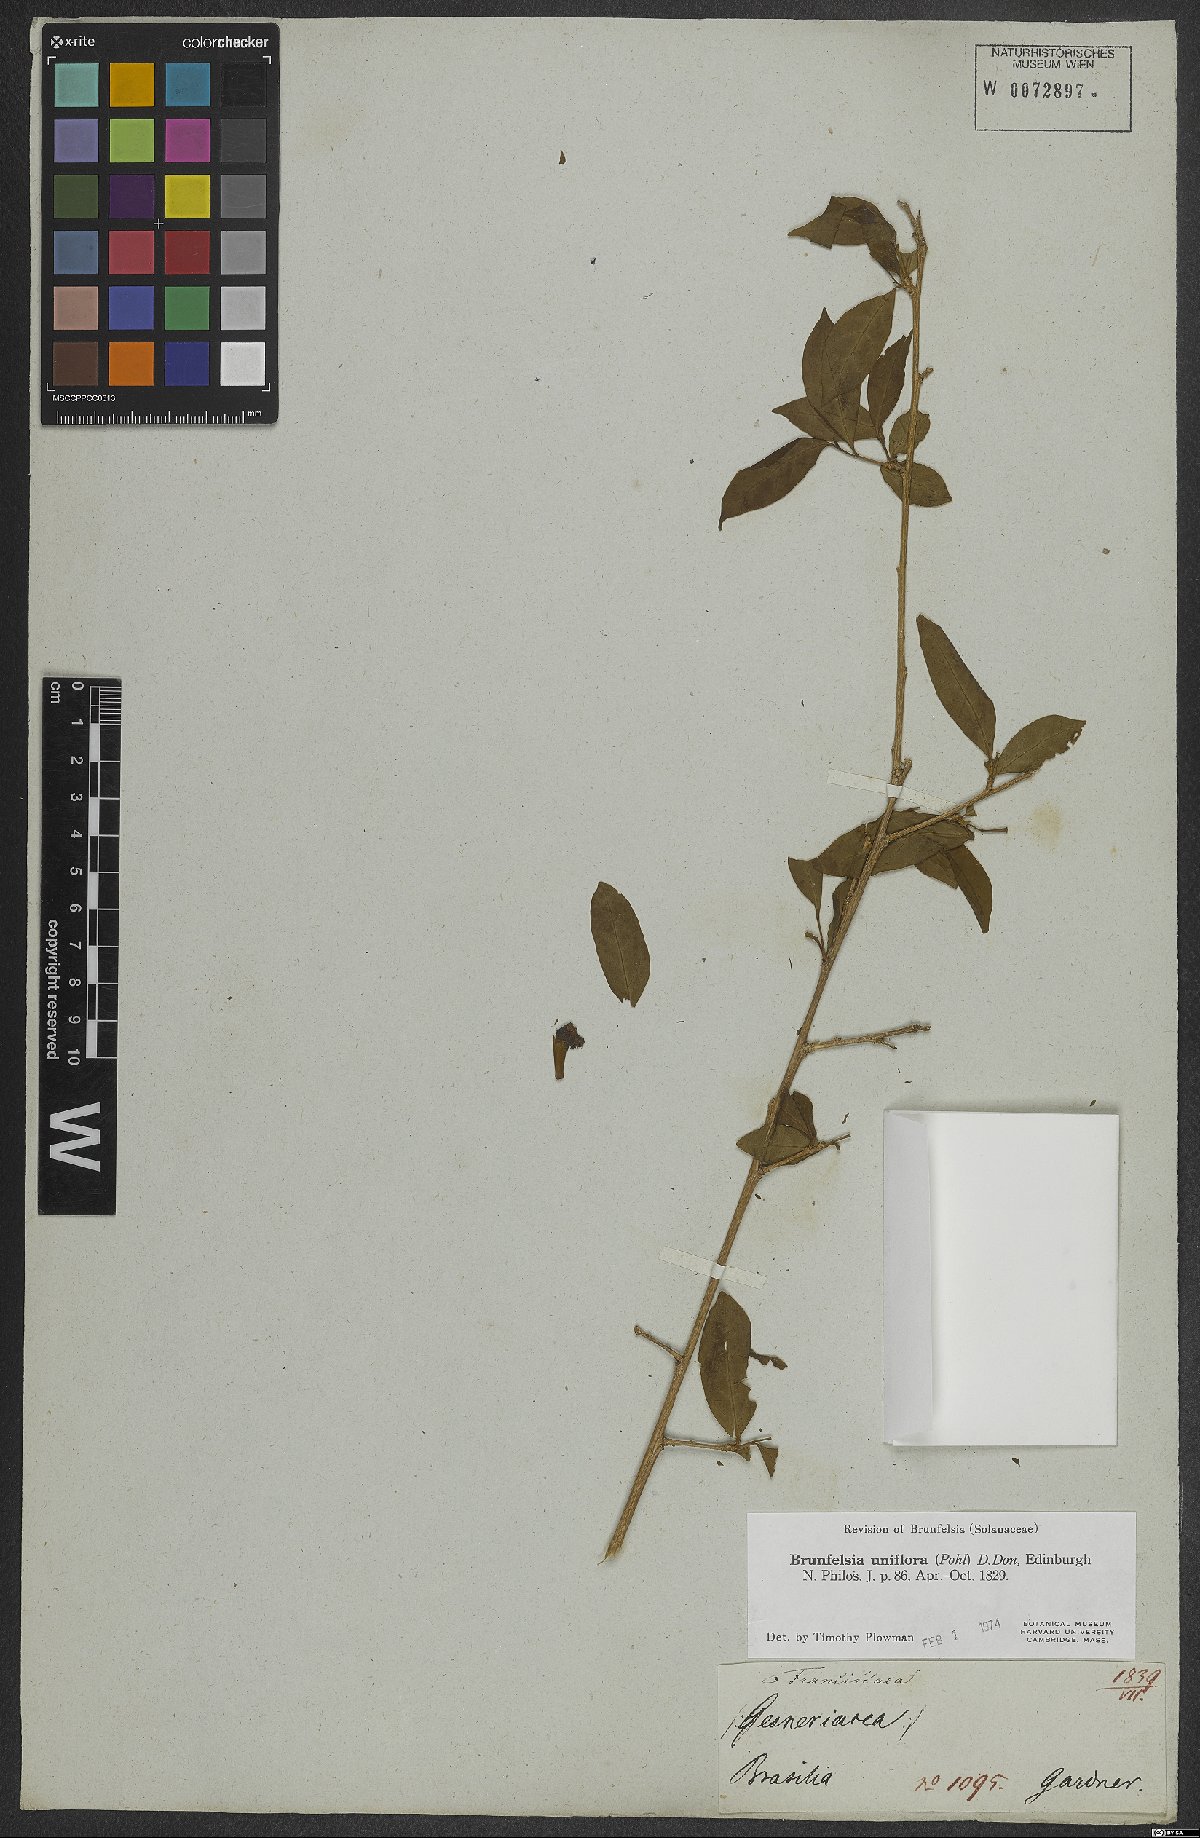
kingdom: Plantae
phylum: Tracheophyta
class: Magnoliopsida
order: Solanales
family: Solanaceae
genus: Brunfelsia
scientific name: Brunfelsia uniflora
